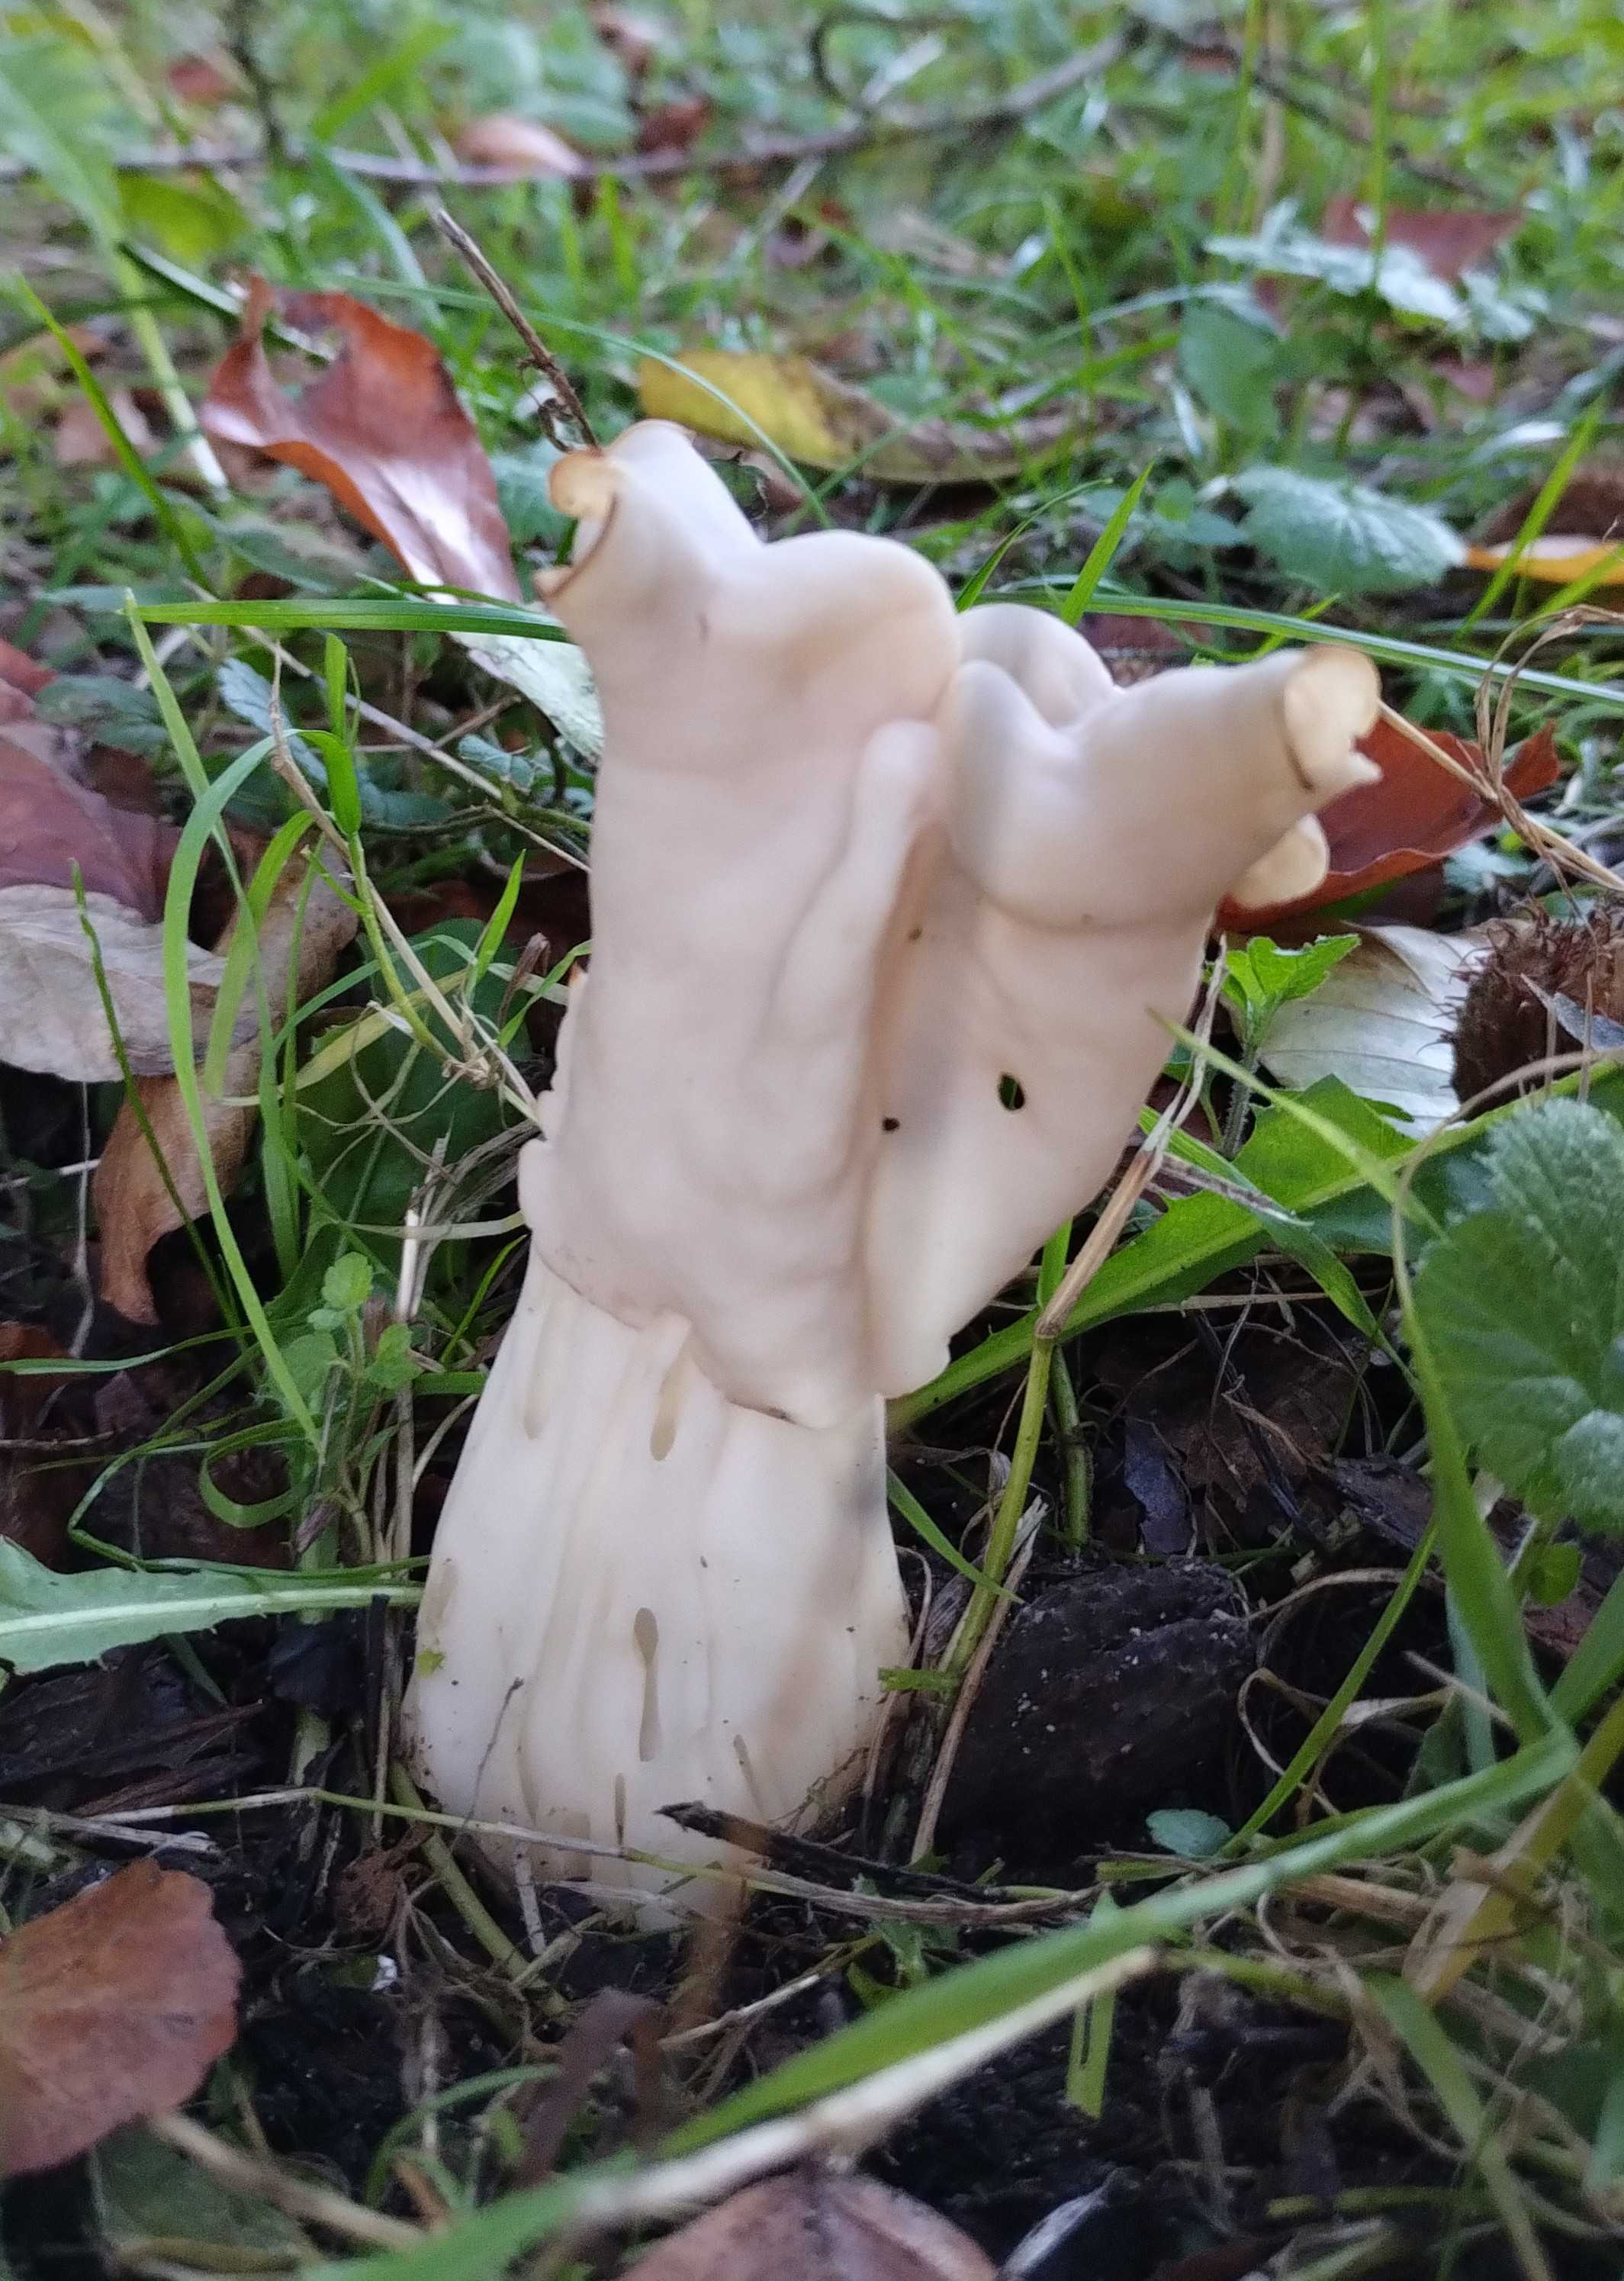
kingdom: Fungi
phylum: Ascomycota
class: Pezizomycetes
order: Pezizales
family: Helvellaceae
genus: Helvella
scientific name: Helvella crispa
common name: kruset foldhat
